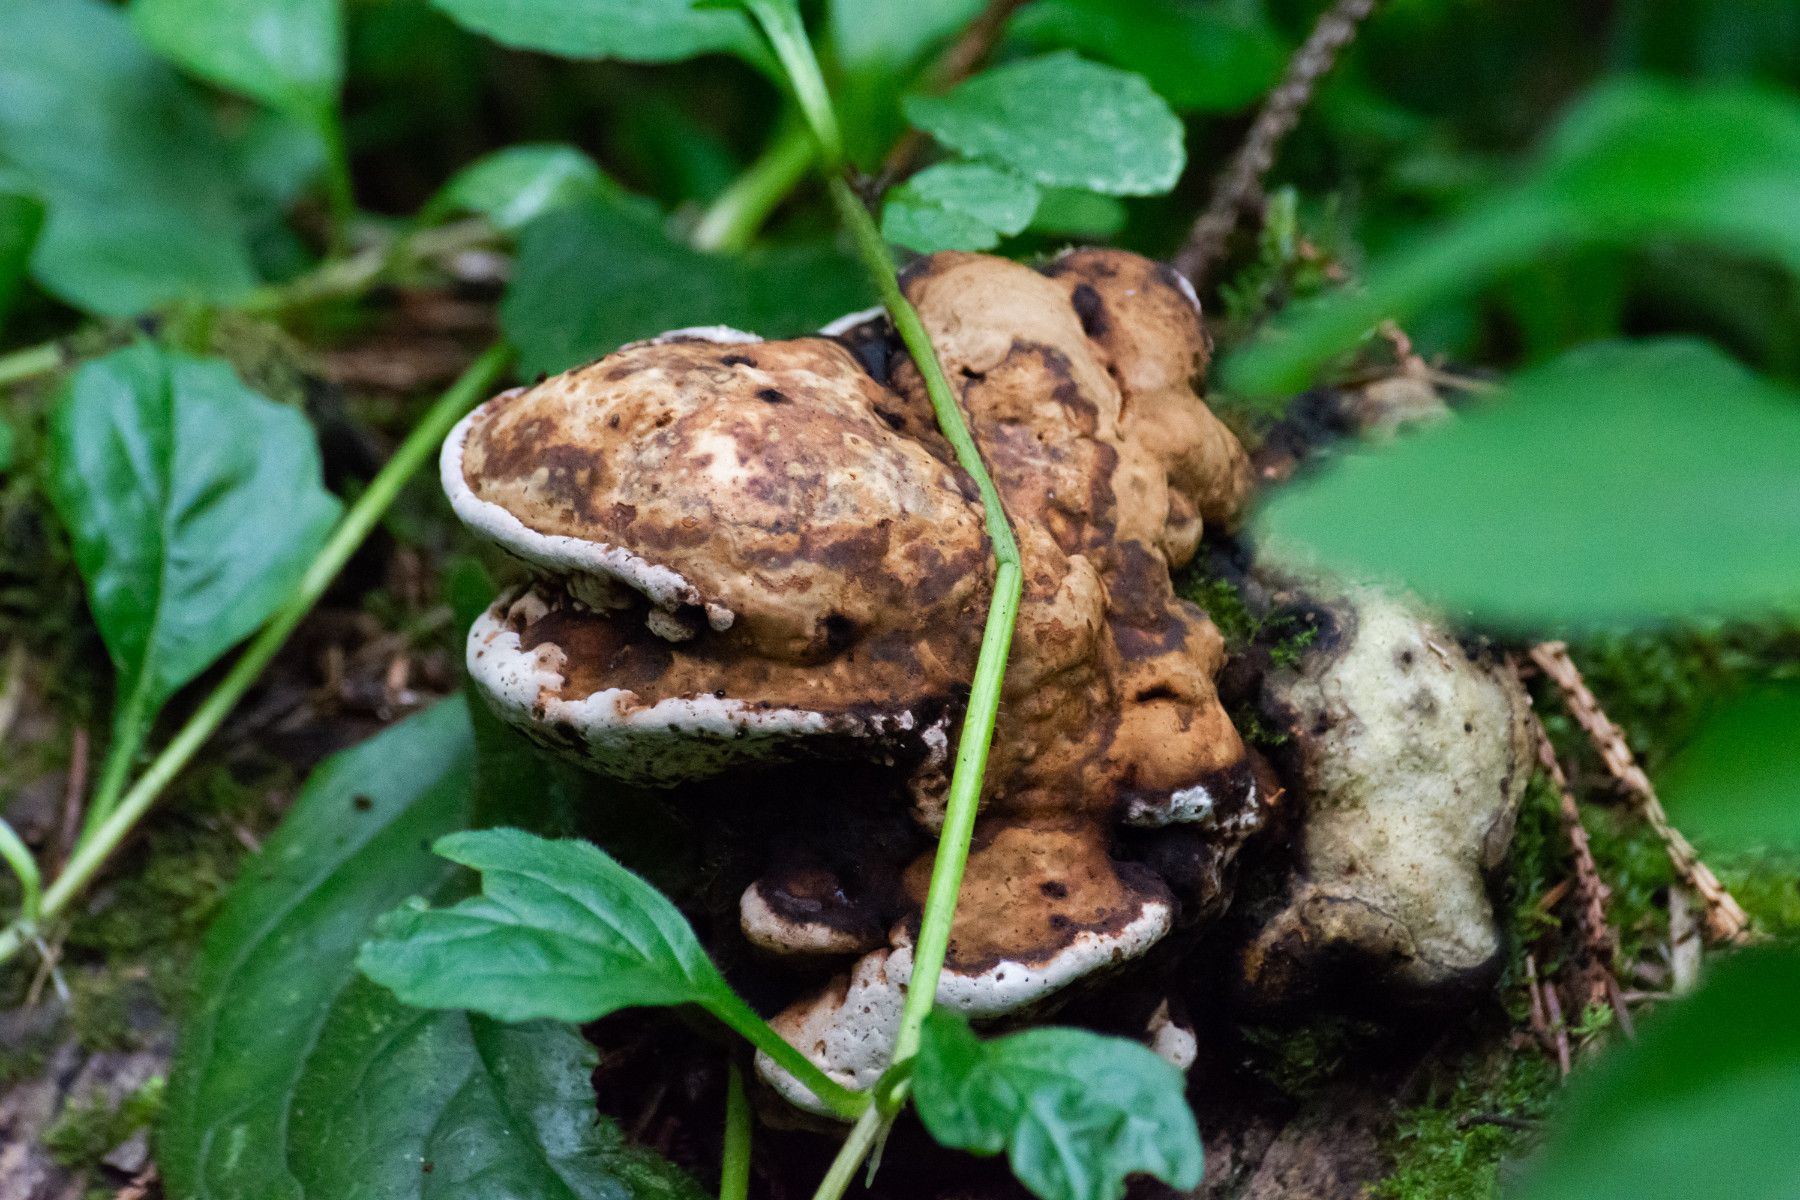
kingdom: Fungi
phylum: Basidiomycota
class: Agaricomycetes
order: Polyporales
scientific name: Polyporales
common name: poresvampordenen
